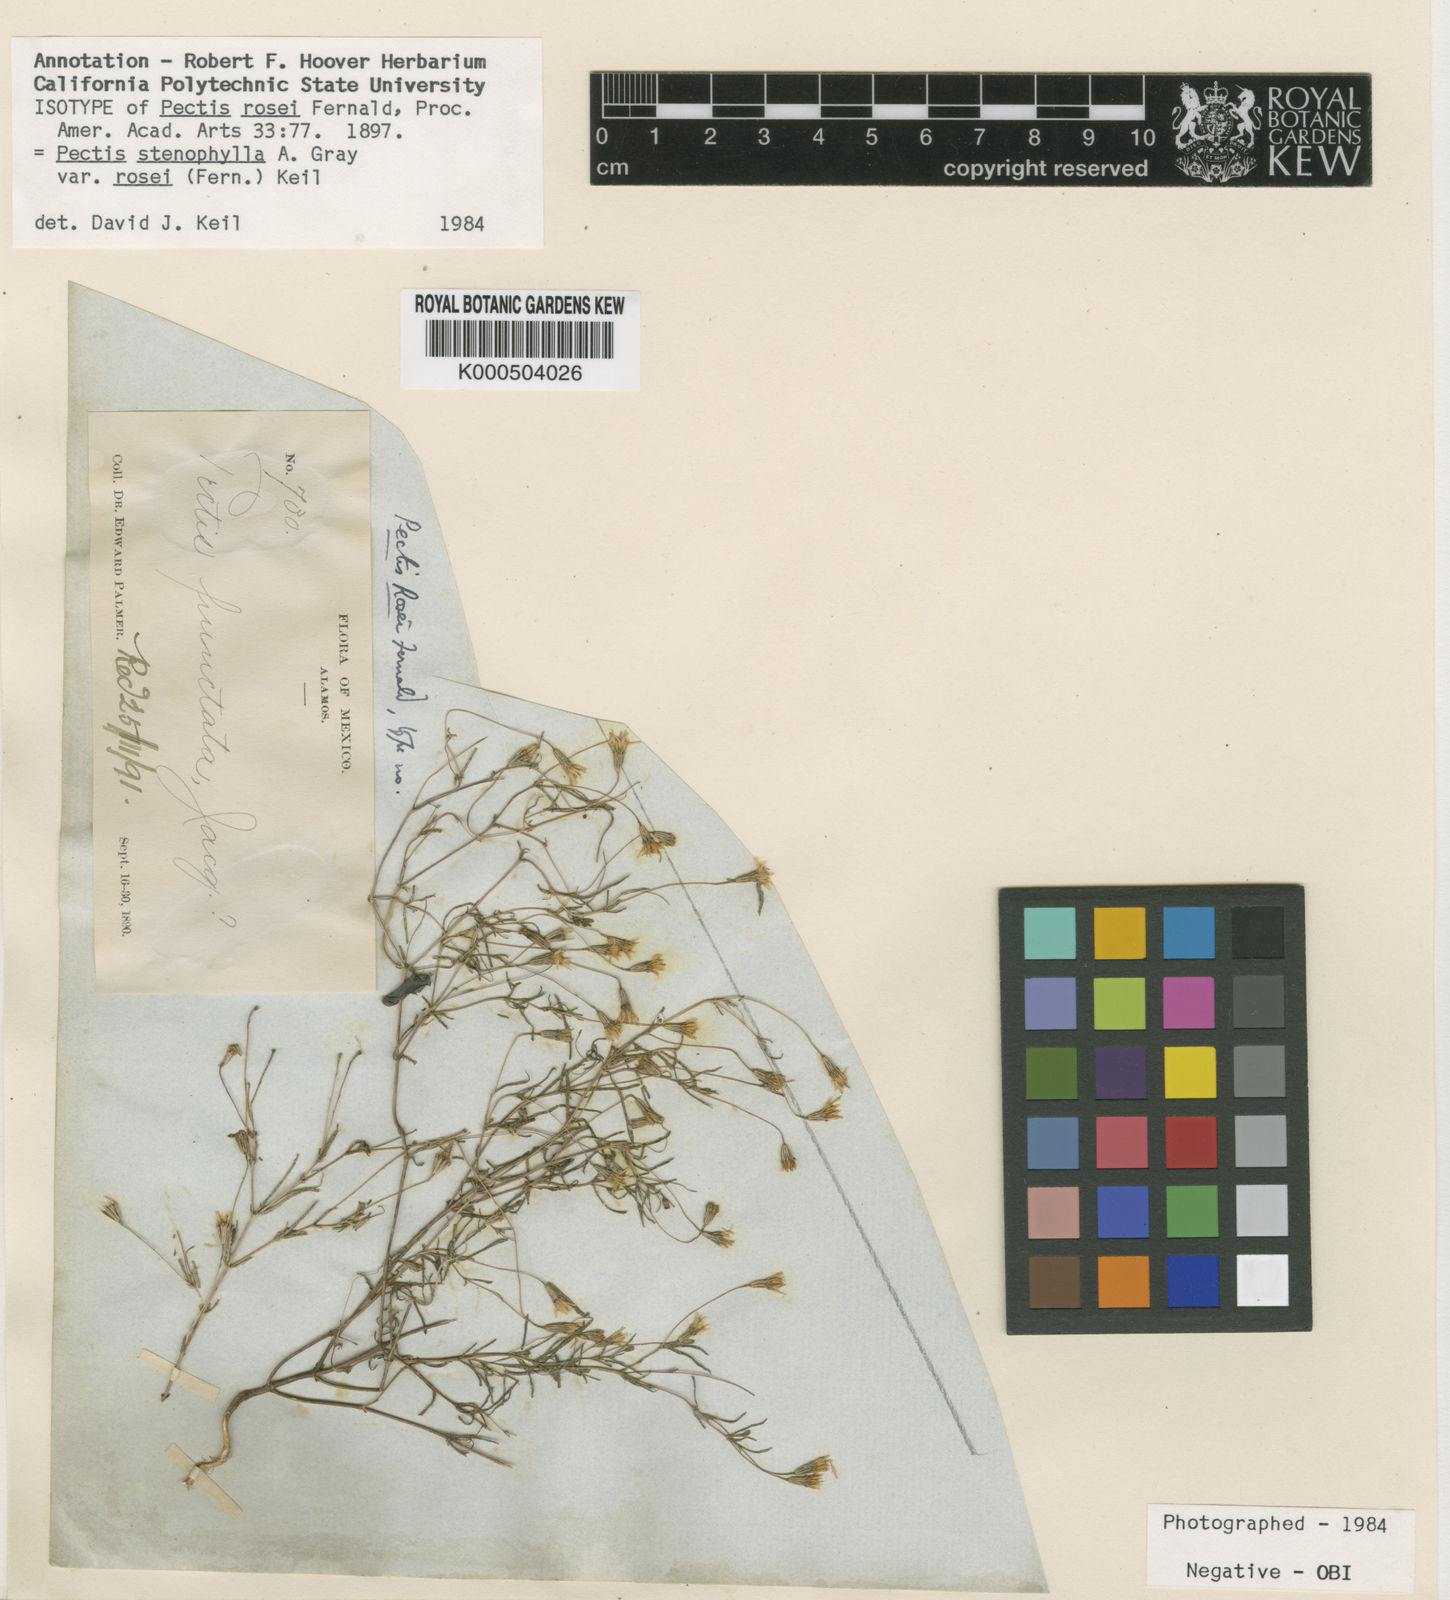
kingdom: Plantae
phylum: Tracheophyta
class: Magnoliopsida
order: Asterales
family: Asteraceae
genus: Pectis
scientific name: Pectis stenophylla
